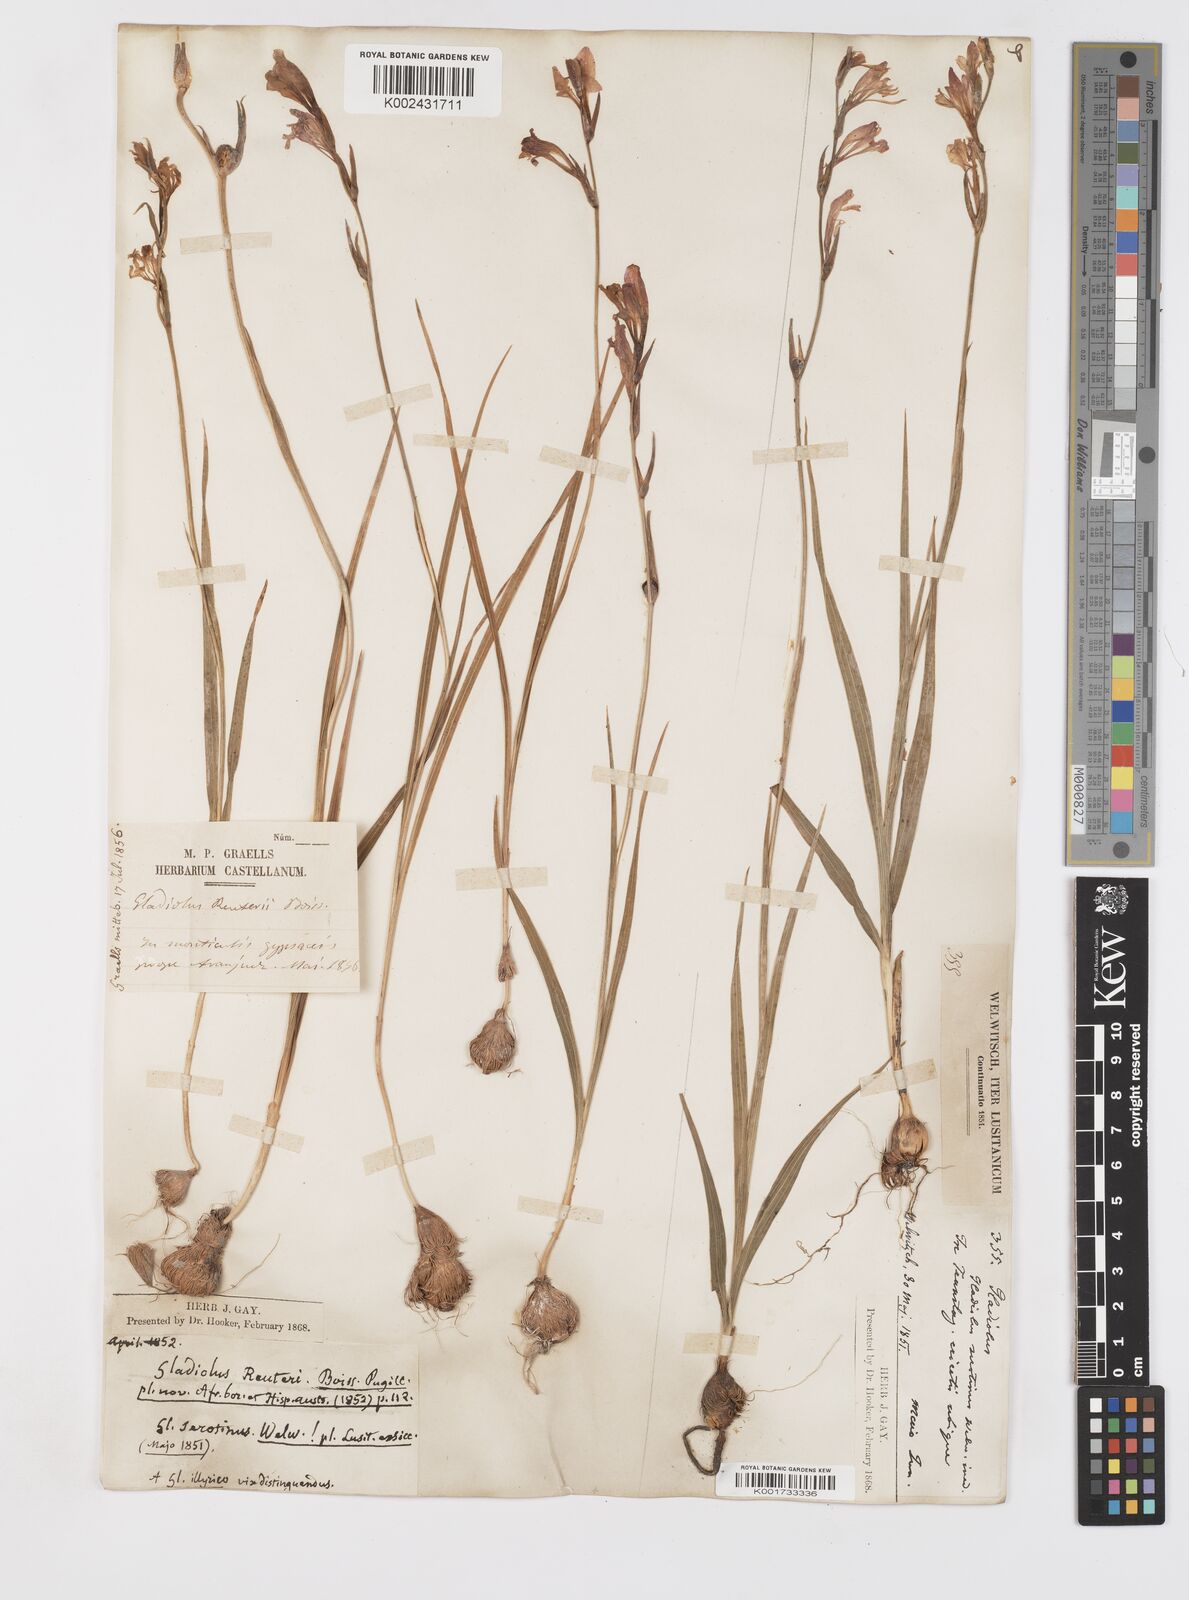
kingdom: Plantae
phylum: Tracheophyta
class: Liliopsida
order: Asparagales
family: Iridaceae
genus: Gladiolus
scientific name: Gladiolus illyricus
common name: Wild gladiolus
